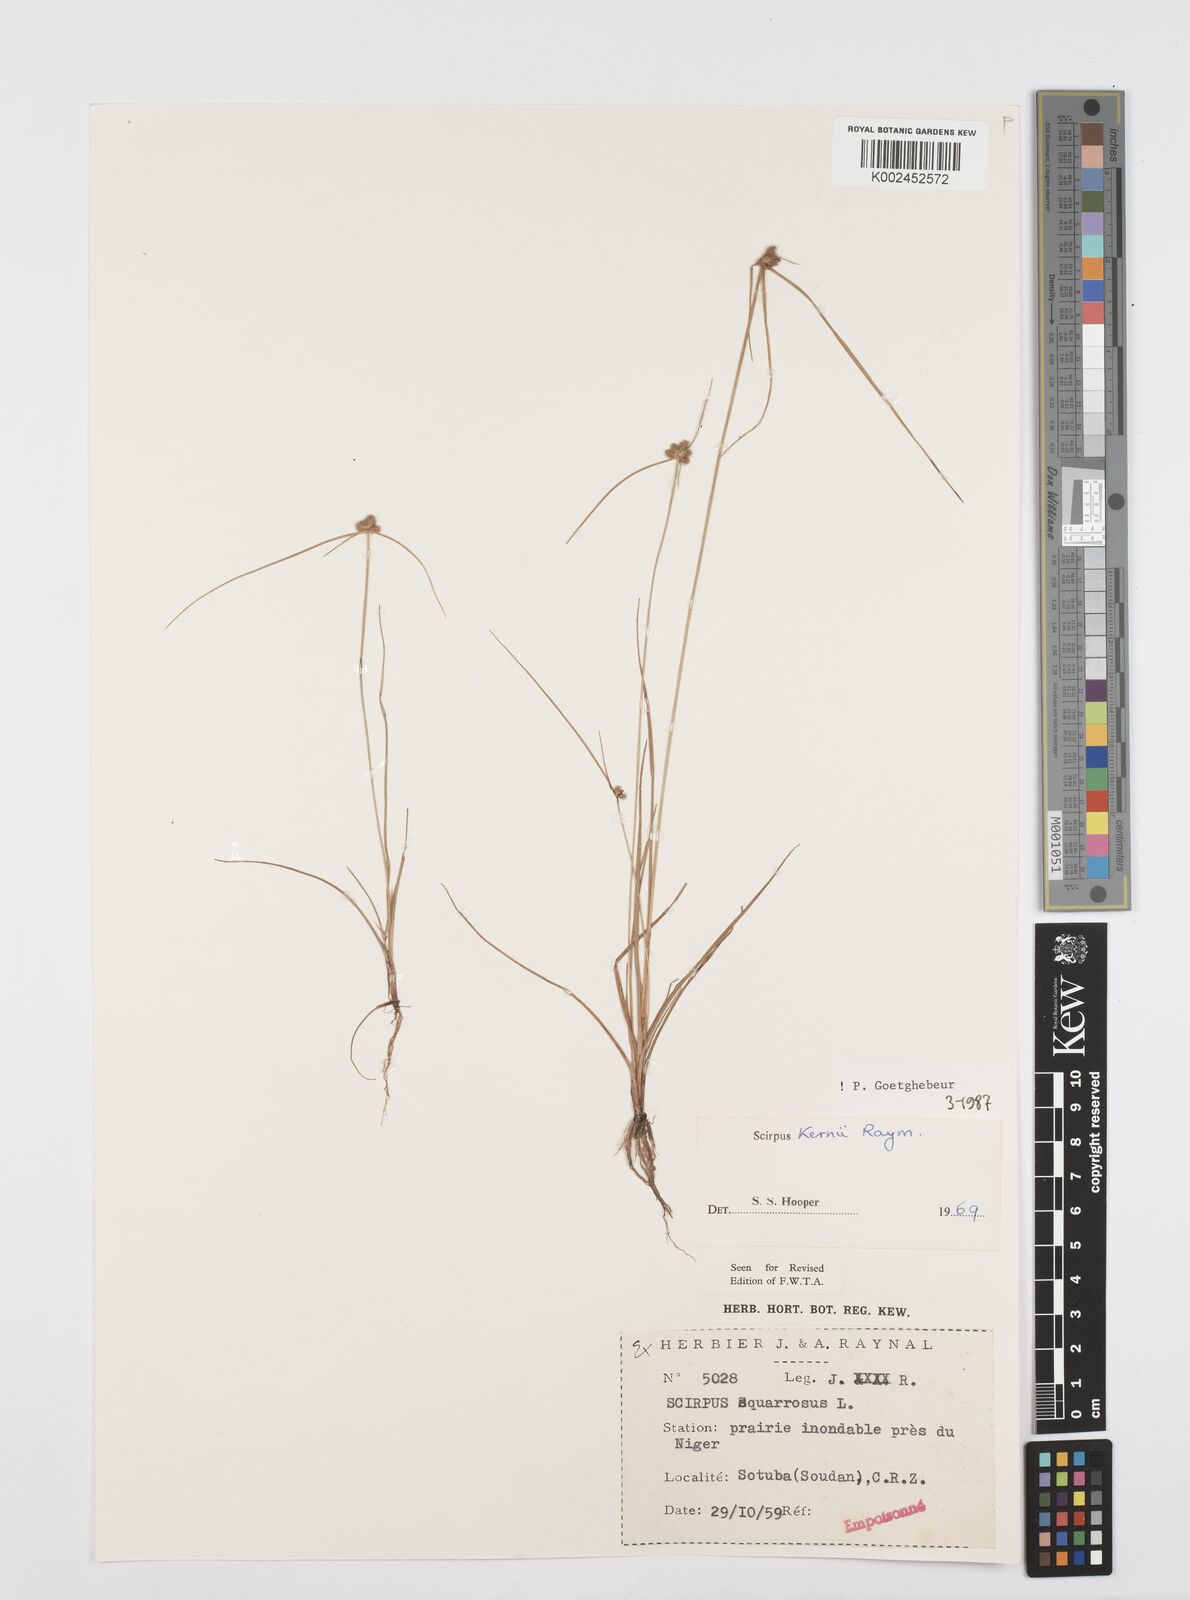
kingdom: Plantae
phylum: Tracheophyta
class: Liliopsida
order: Poales
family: Cyperaceae
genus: Cyperus
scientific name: Cyperus kernii
